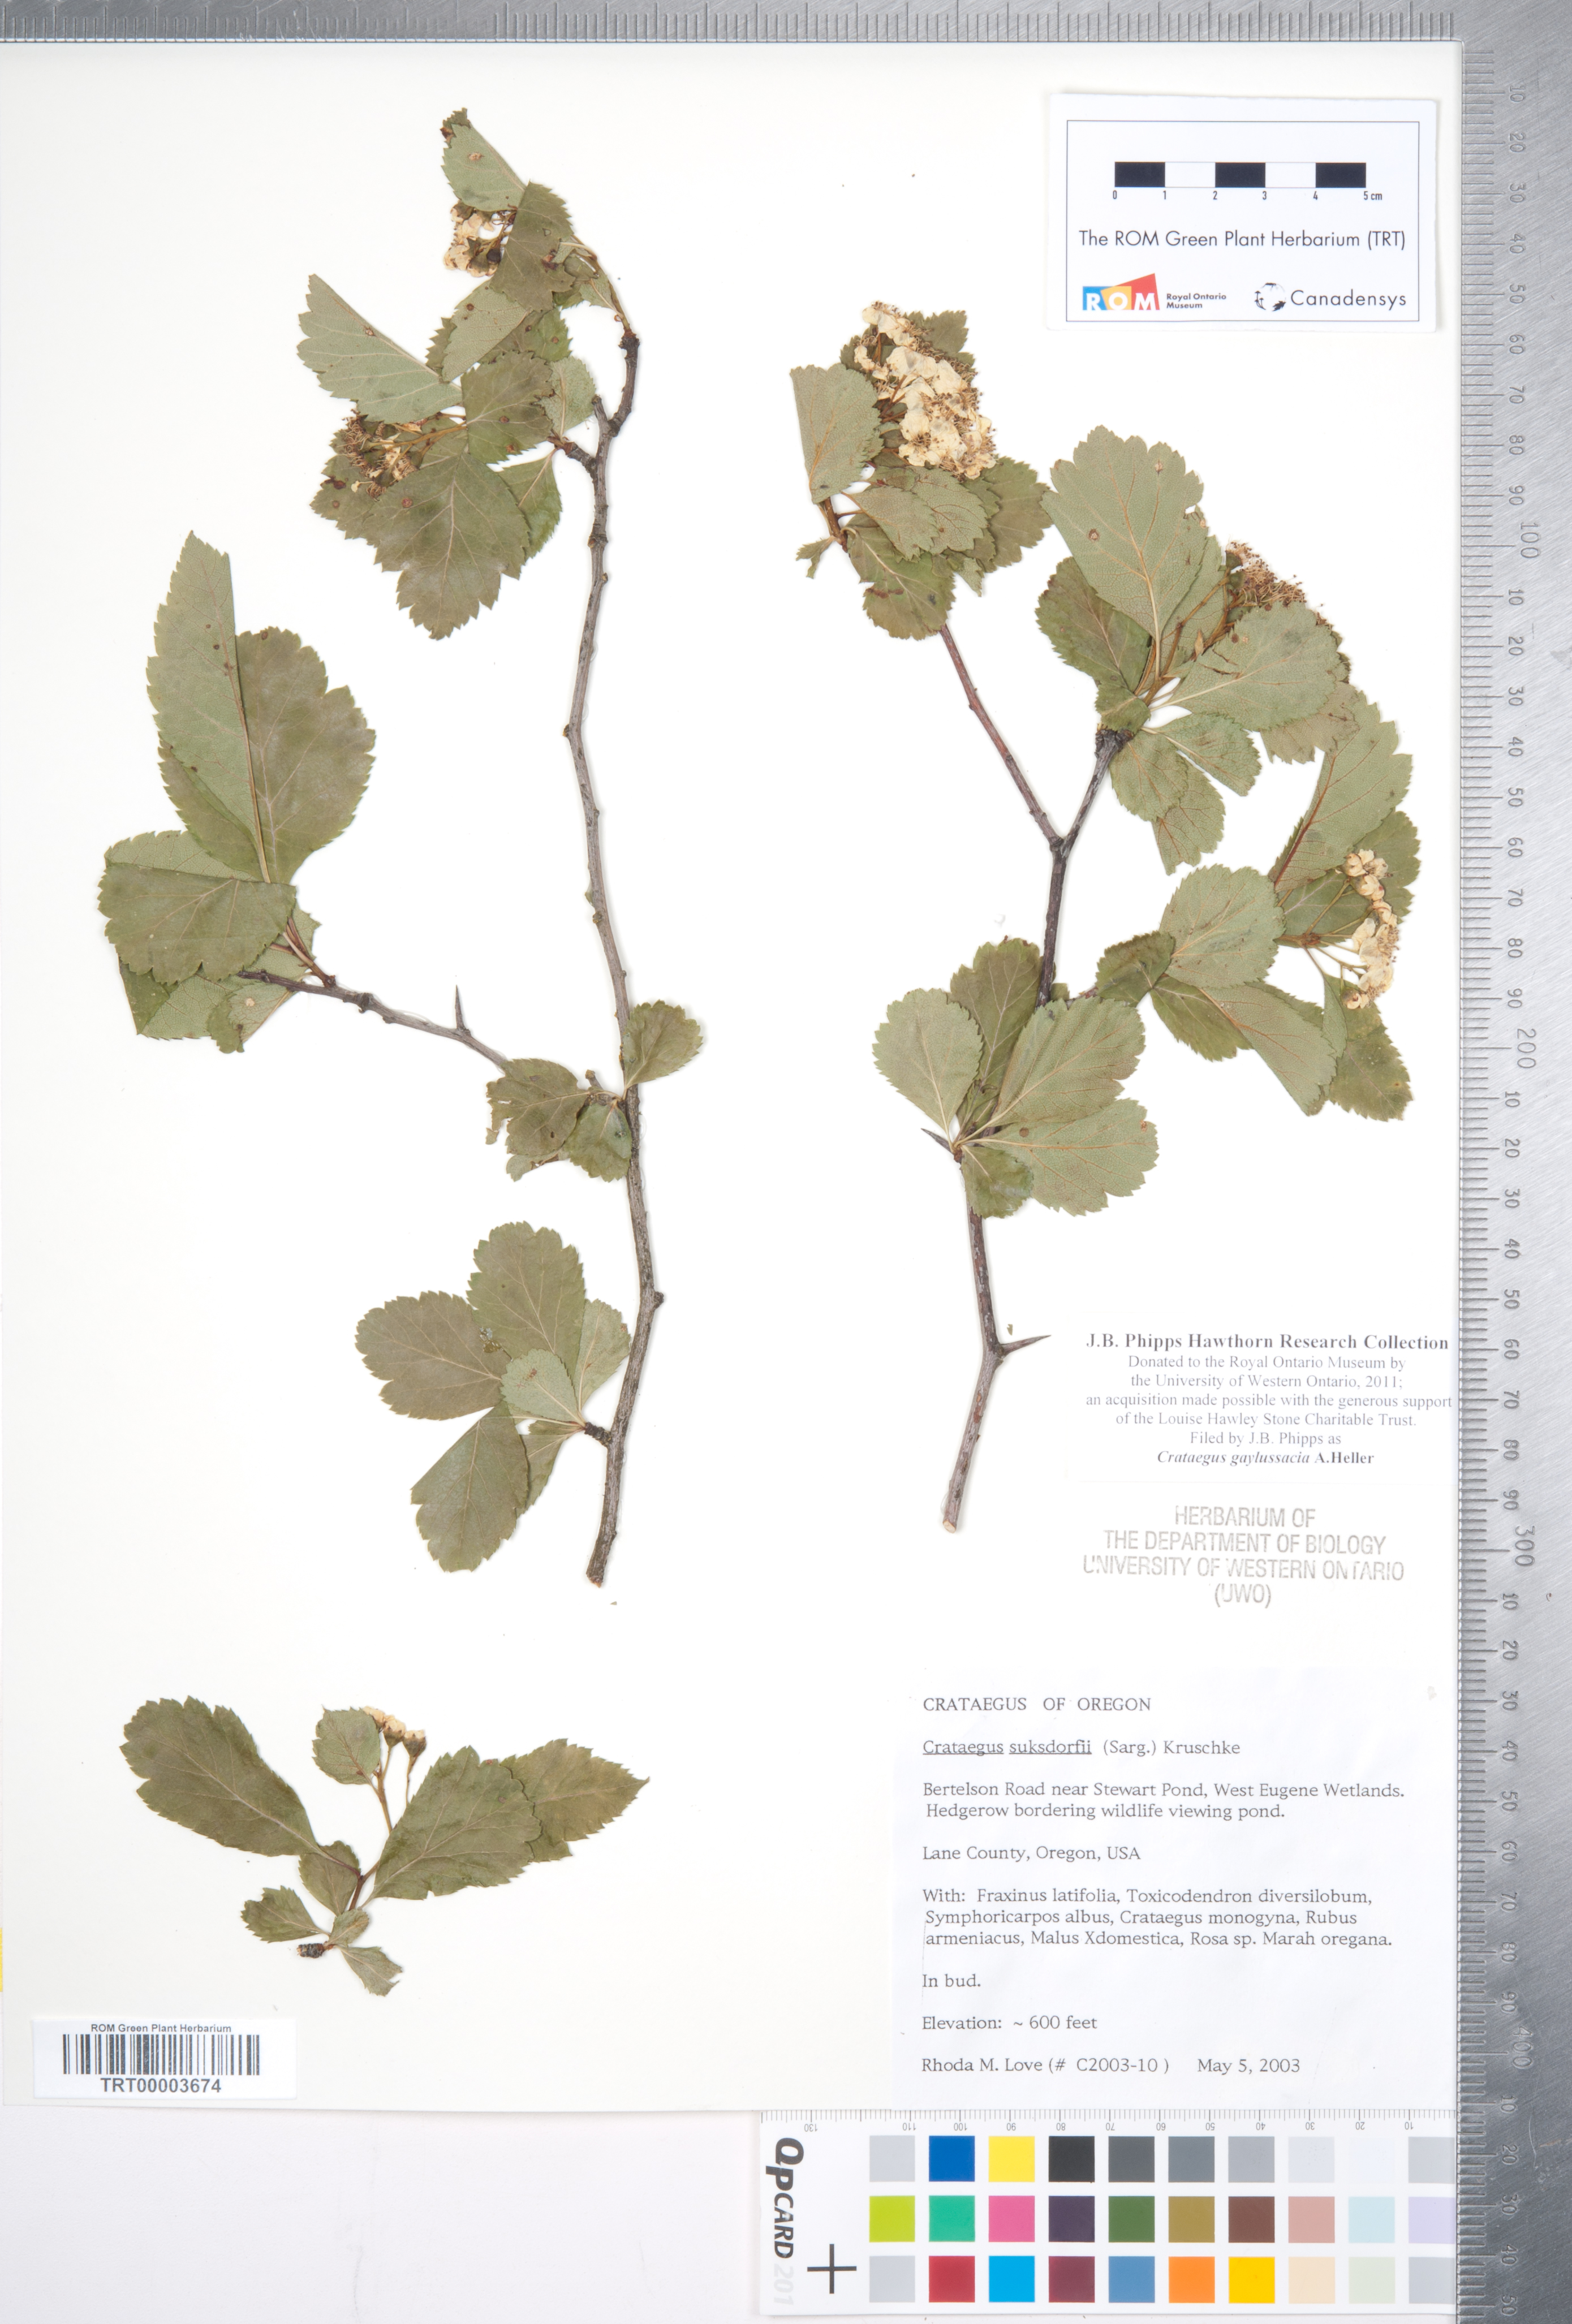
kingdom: Plantae
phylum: Tracheophyta
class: Magnoliopsida
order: Rosales
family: Rosaceae
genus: Crataegus
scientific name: Crataegus gaylussacia
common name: Huckleberry hawthorn
